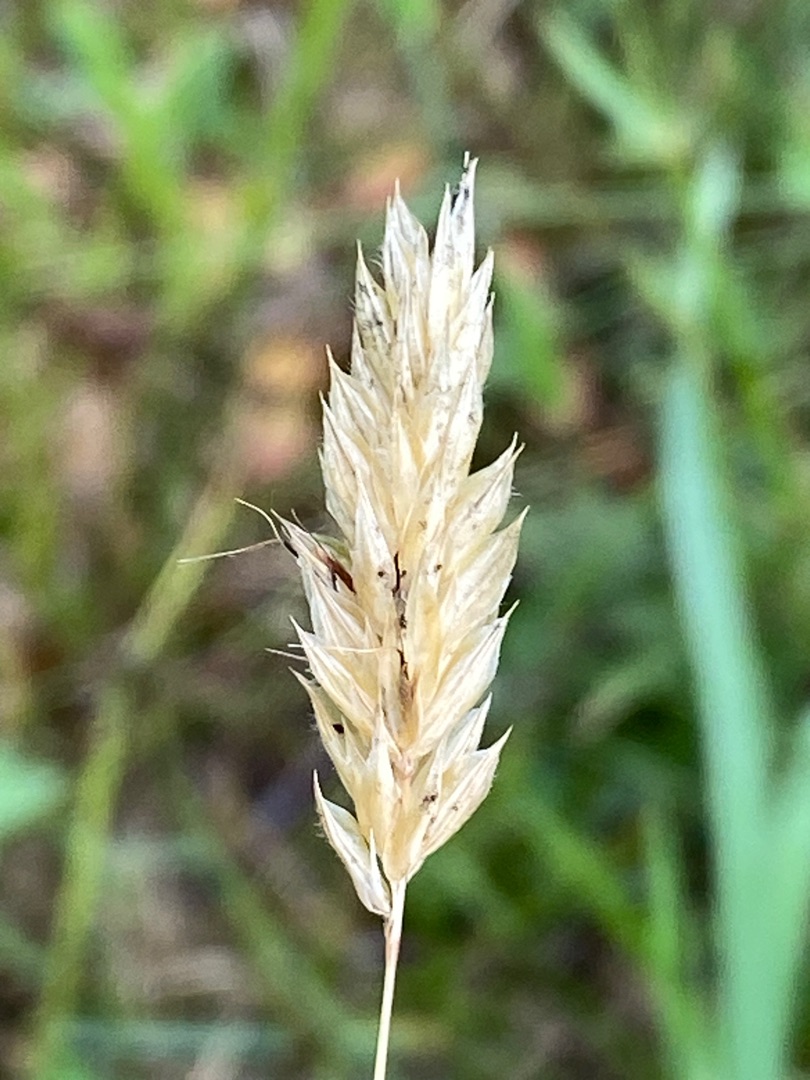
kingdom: Plantae
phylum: Tracheophyta
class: Liliopsida
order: Poales
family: Poaceae
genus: Anthoxanthum
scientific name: Anthoxanthum odoratum
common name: Vellugtende gulaks
